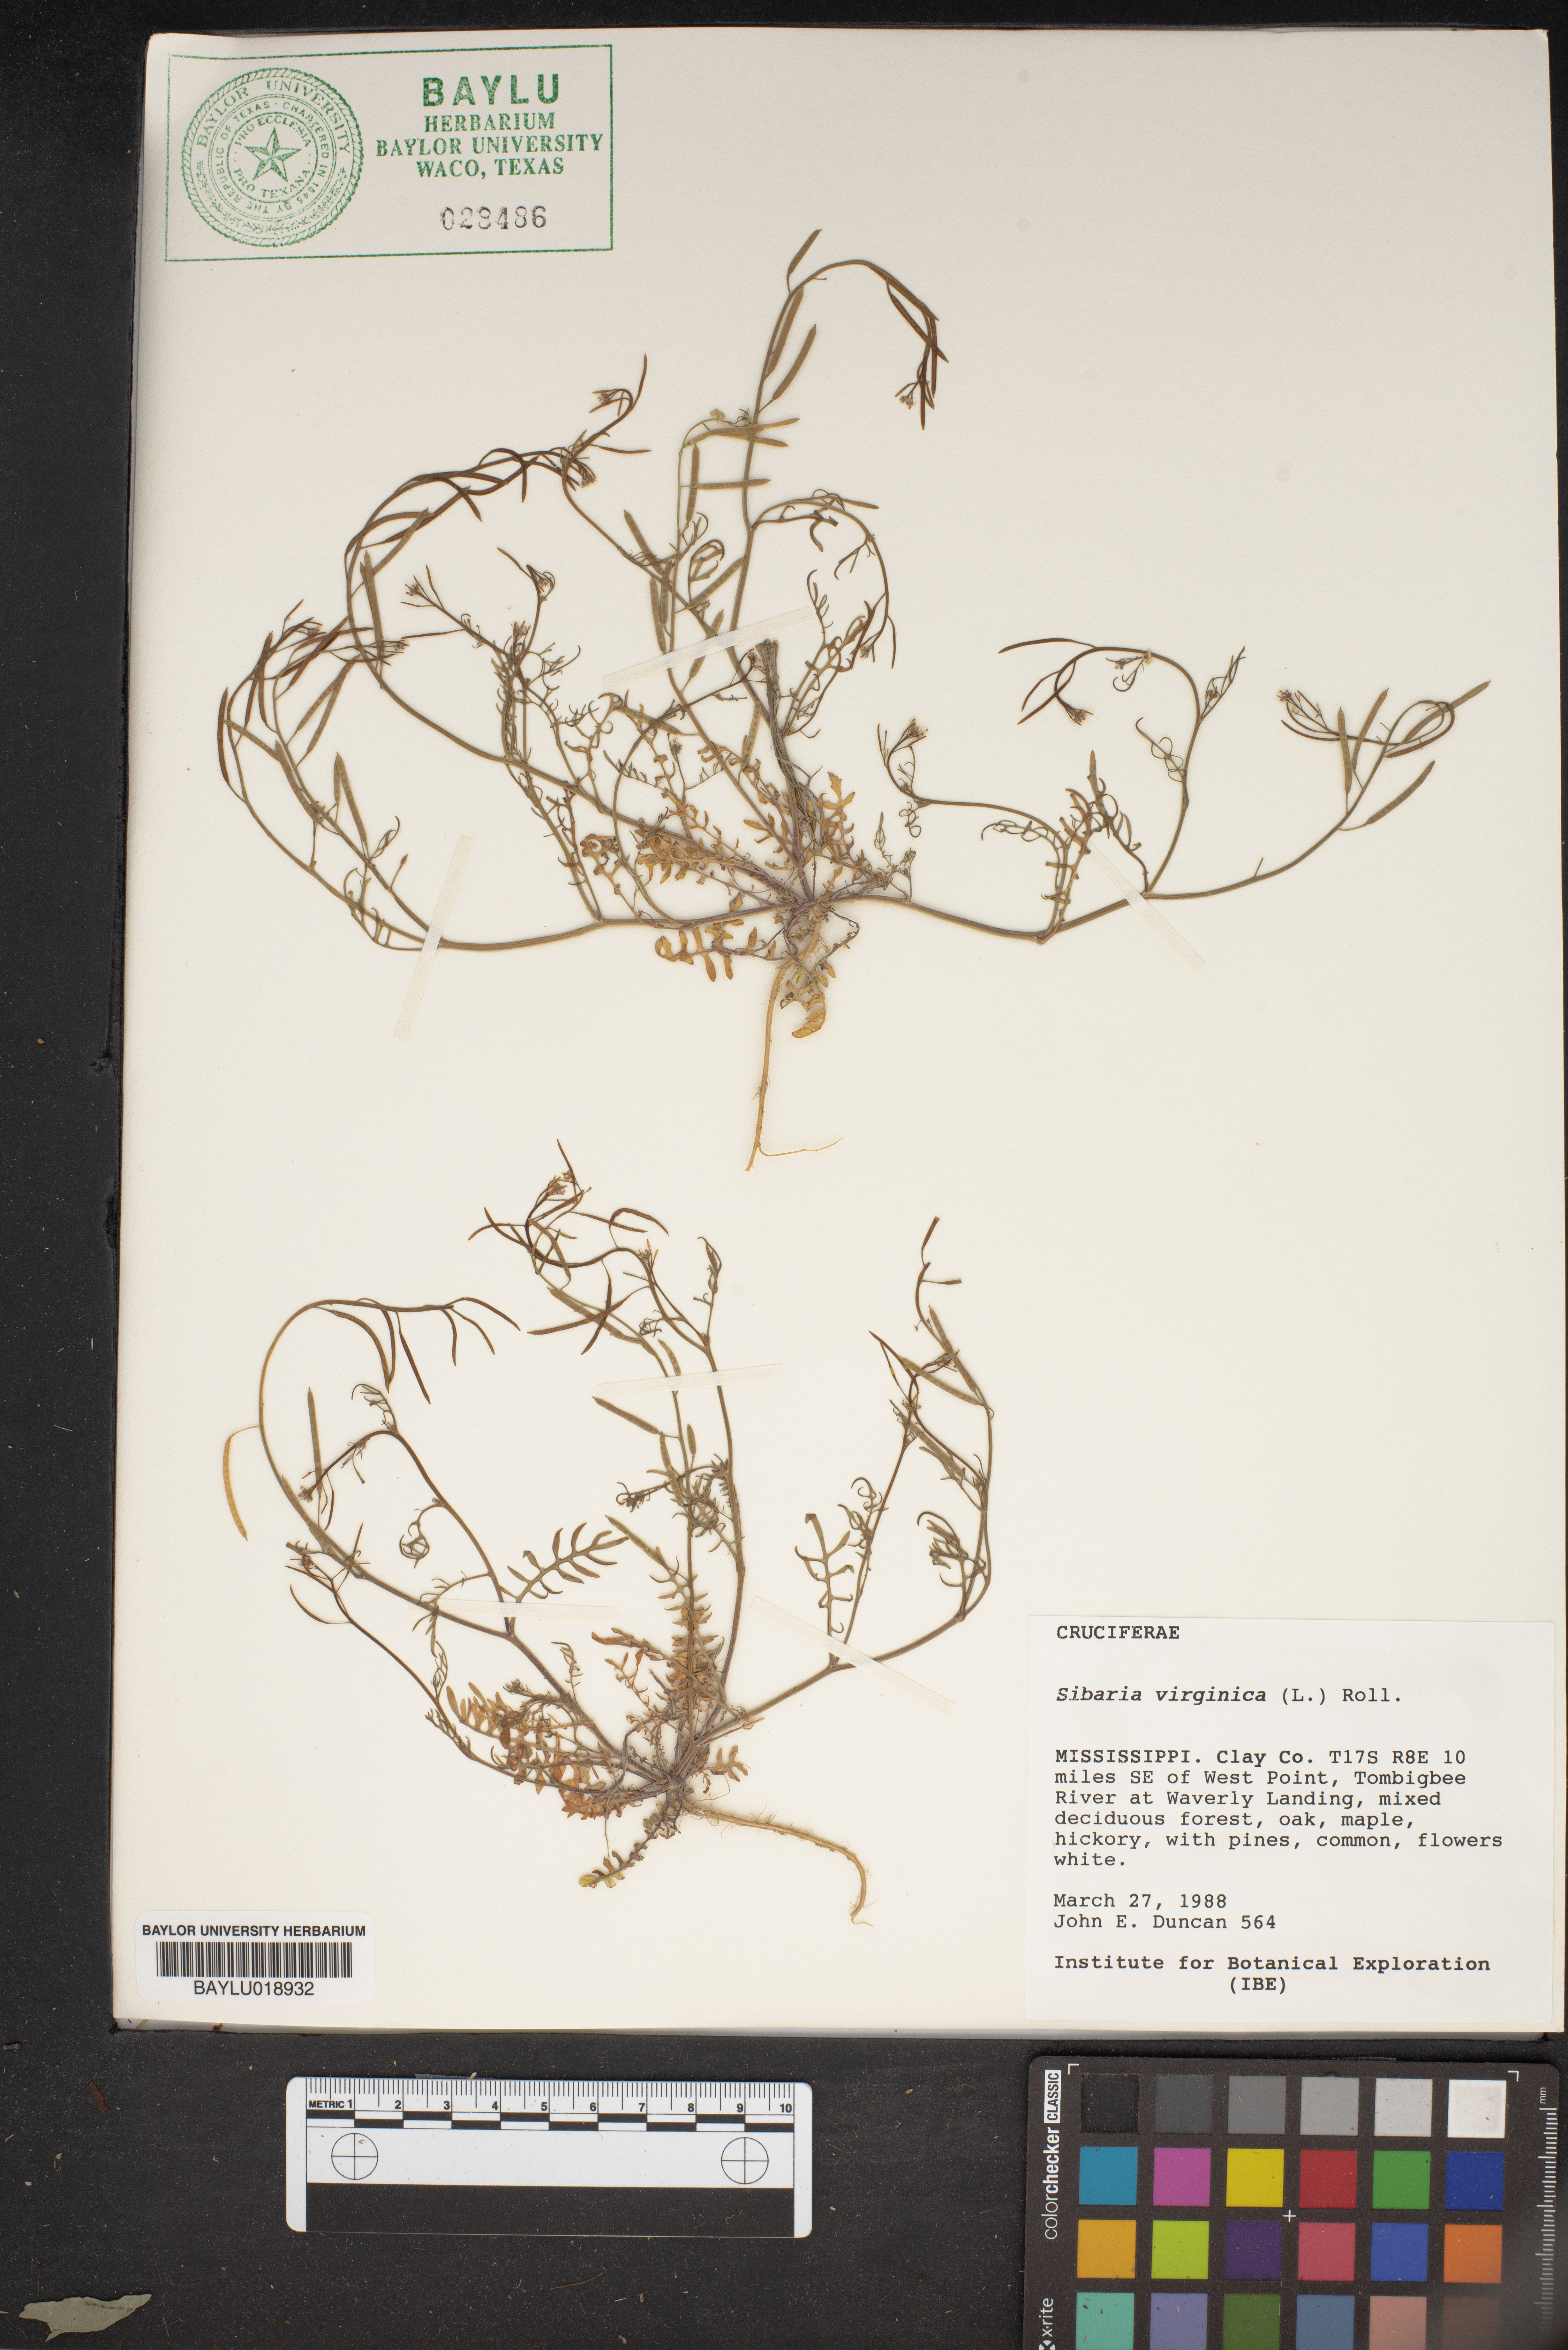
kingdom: Plantae
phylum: Tracheophyta
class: Magnoliopsida
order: Brassicales
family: Brassicaceae
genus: Planodes
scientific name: Planodes virginicum
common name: Virginia cress
